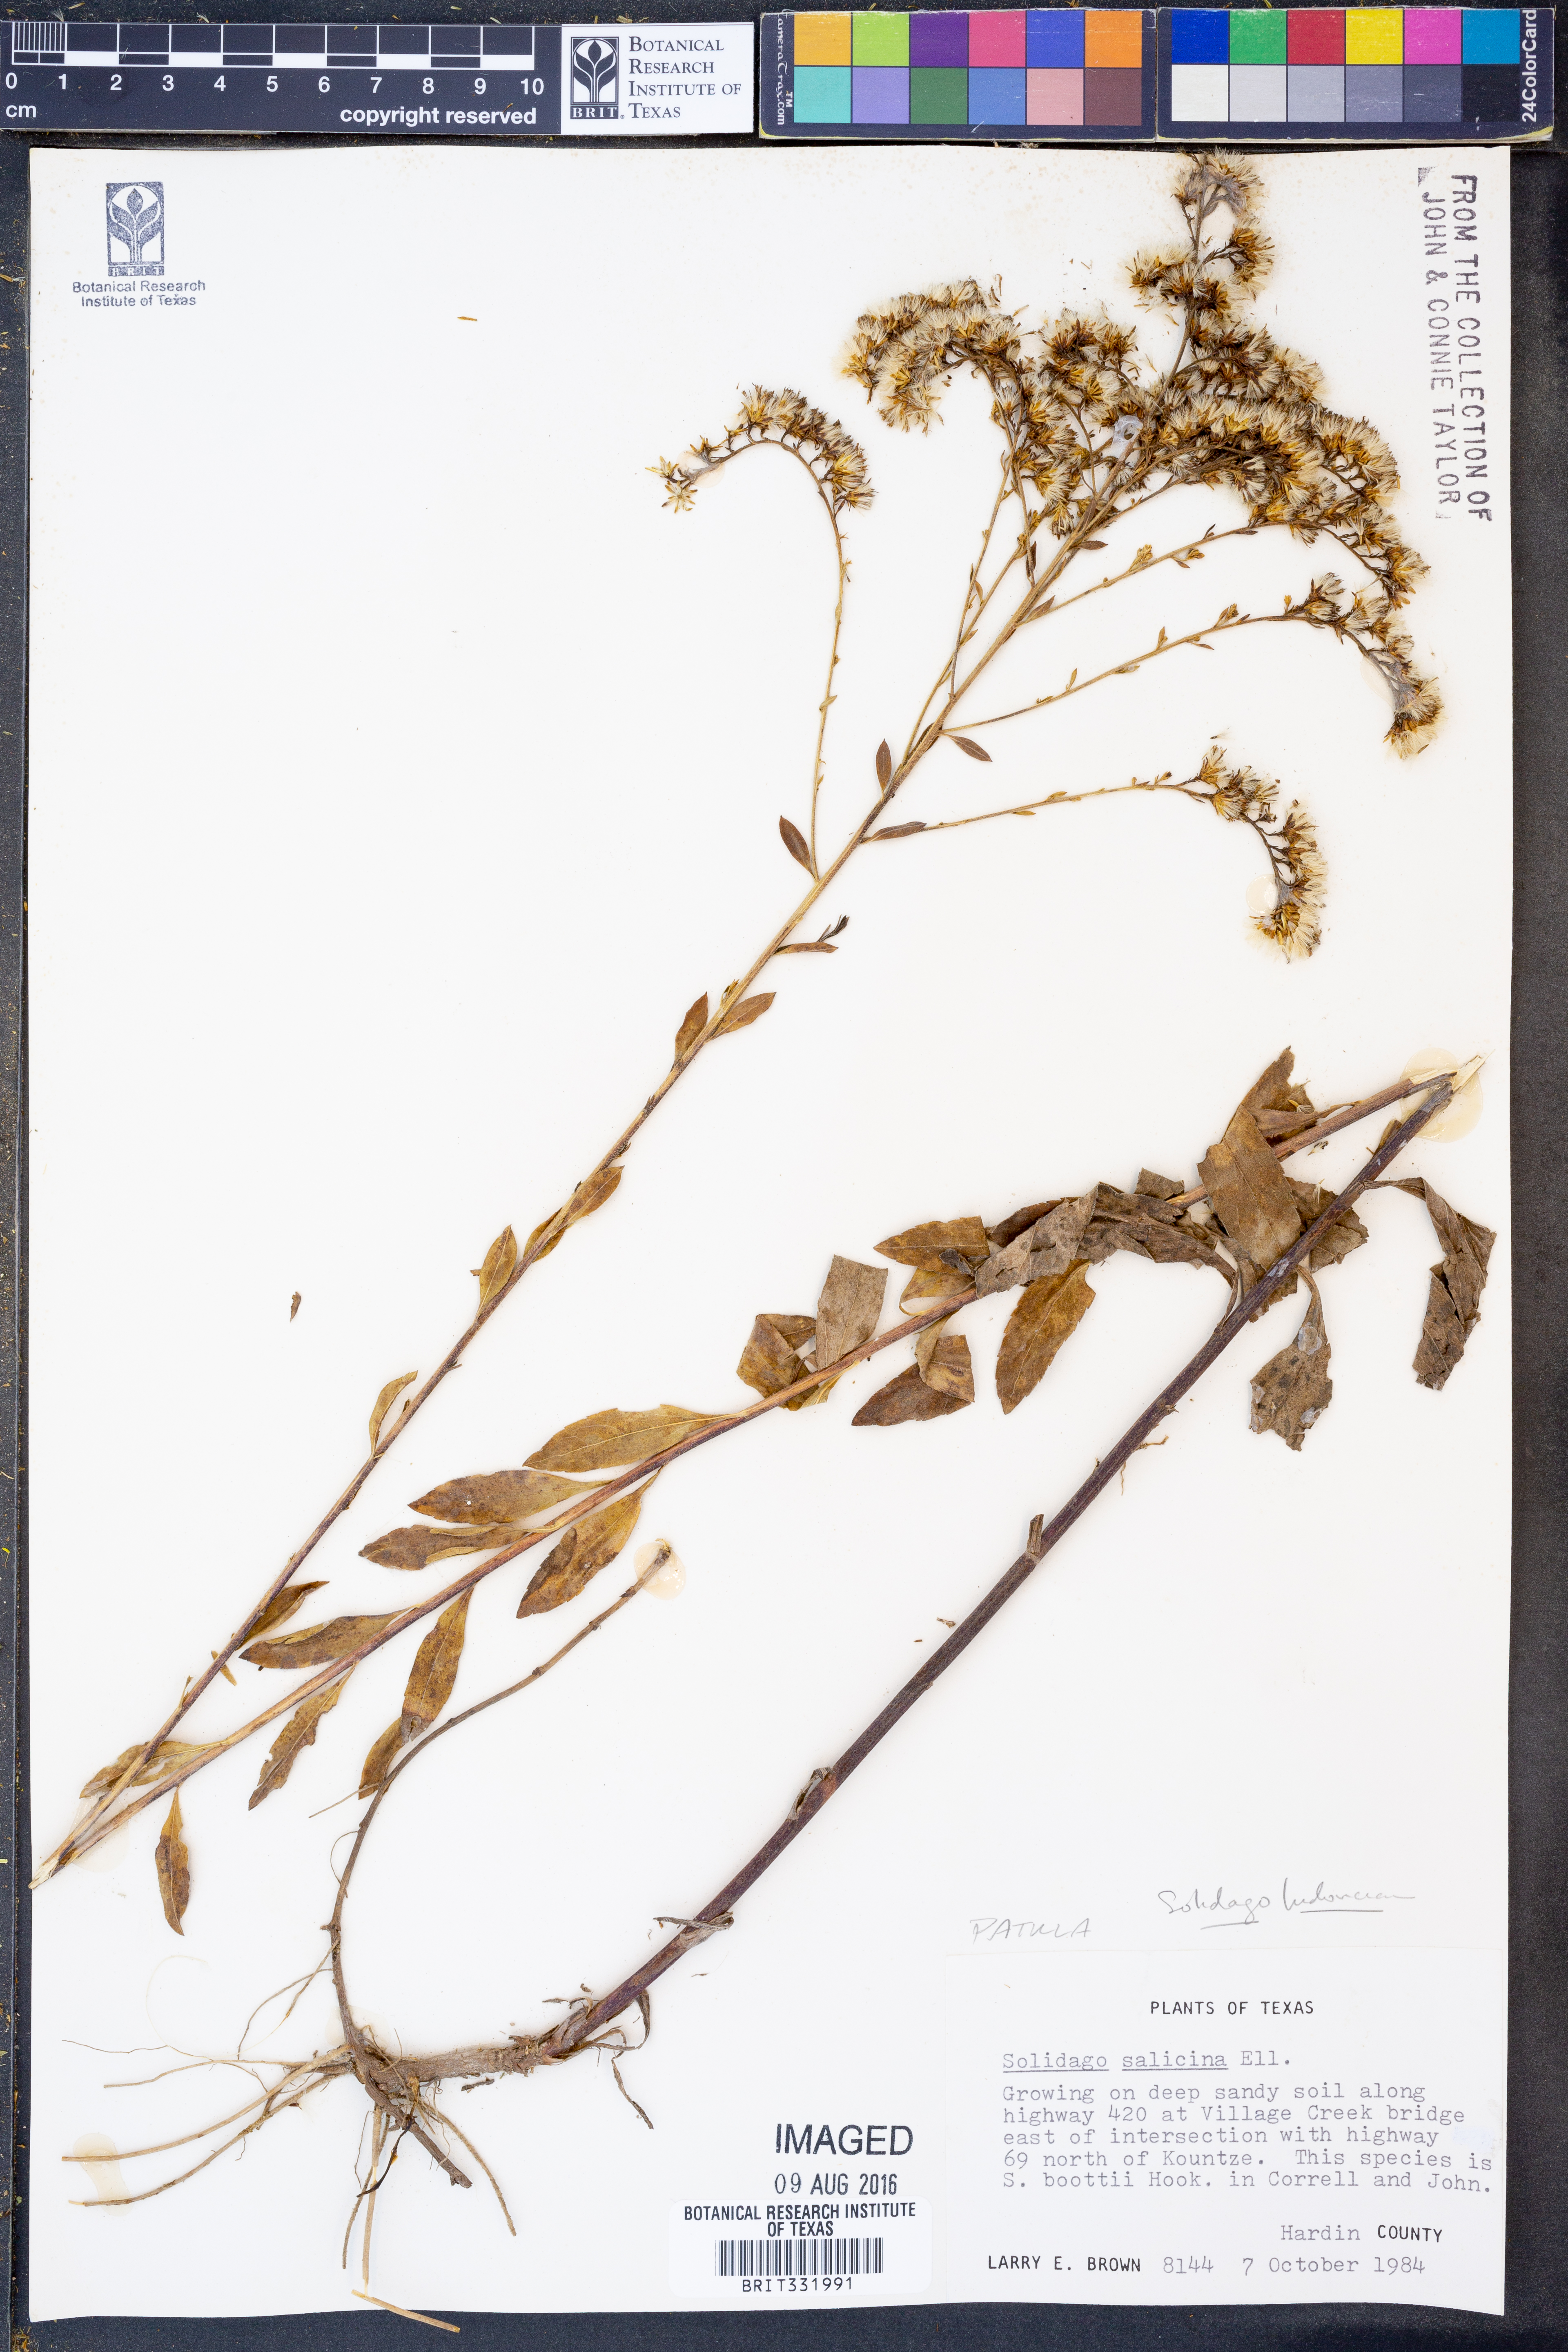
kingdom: Plantae
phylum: Tracheophyta
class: Magnoliopsida
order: Asterales
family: Asteraceae
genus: Solidago
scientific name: Solidago ludoviciana
